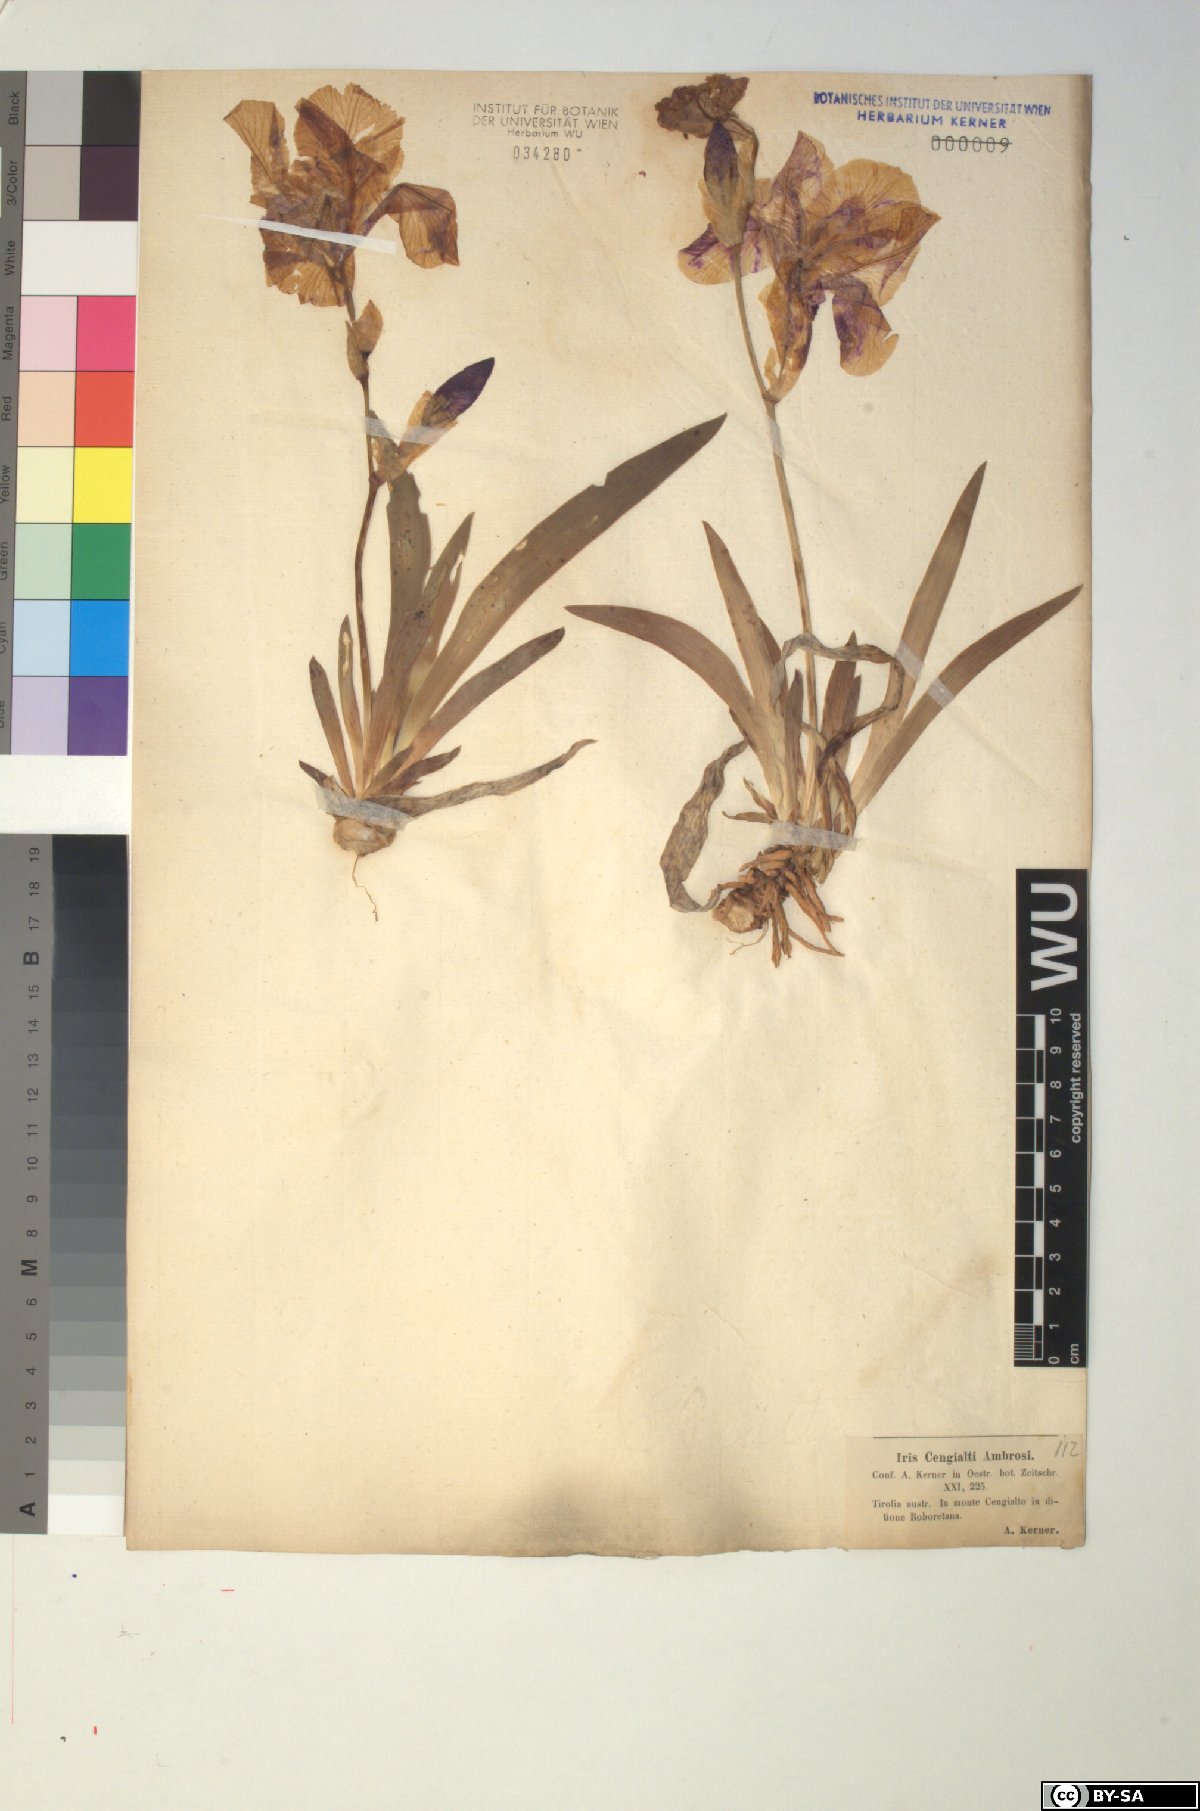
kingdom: Plantae
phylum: Tracheophyta
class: Liliopsida
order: Asparagales
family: Iridaceae
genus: Iris
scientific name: Iris pallida
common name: Sweet iris
